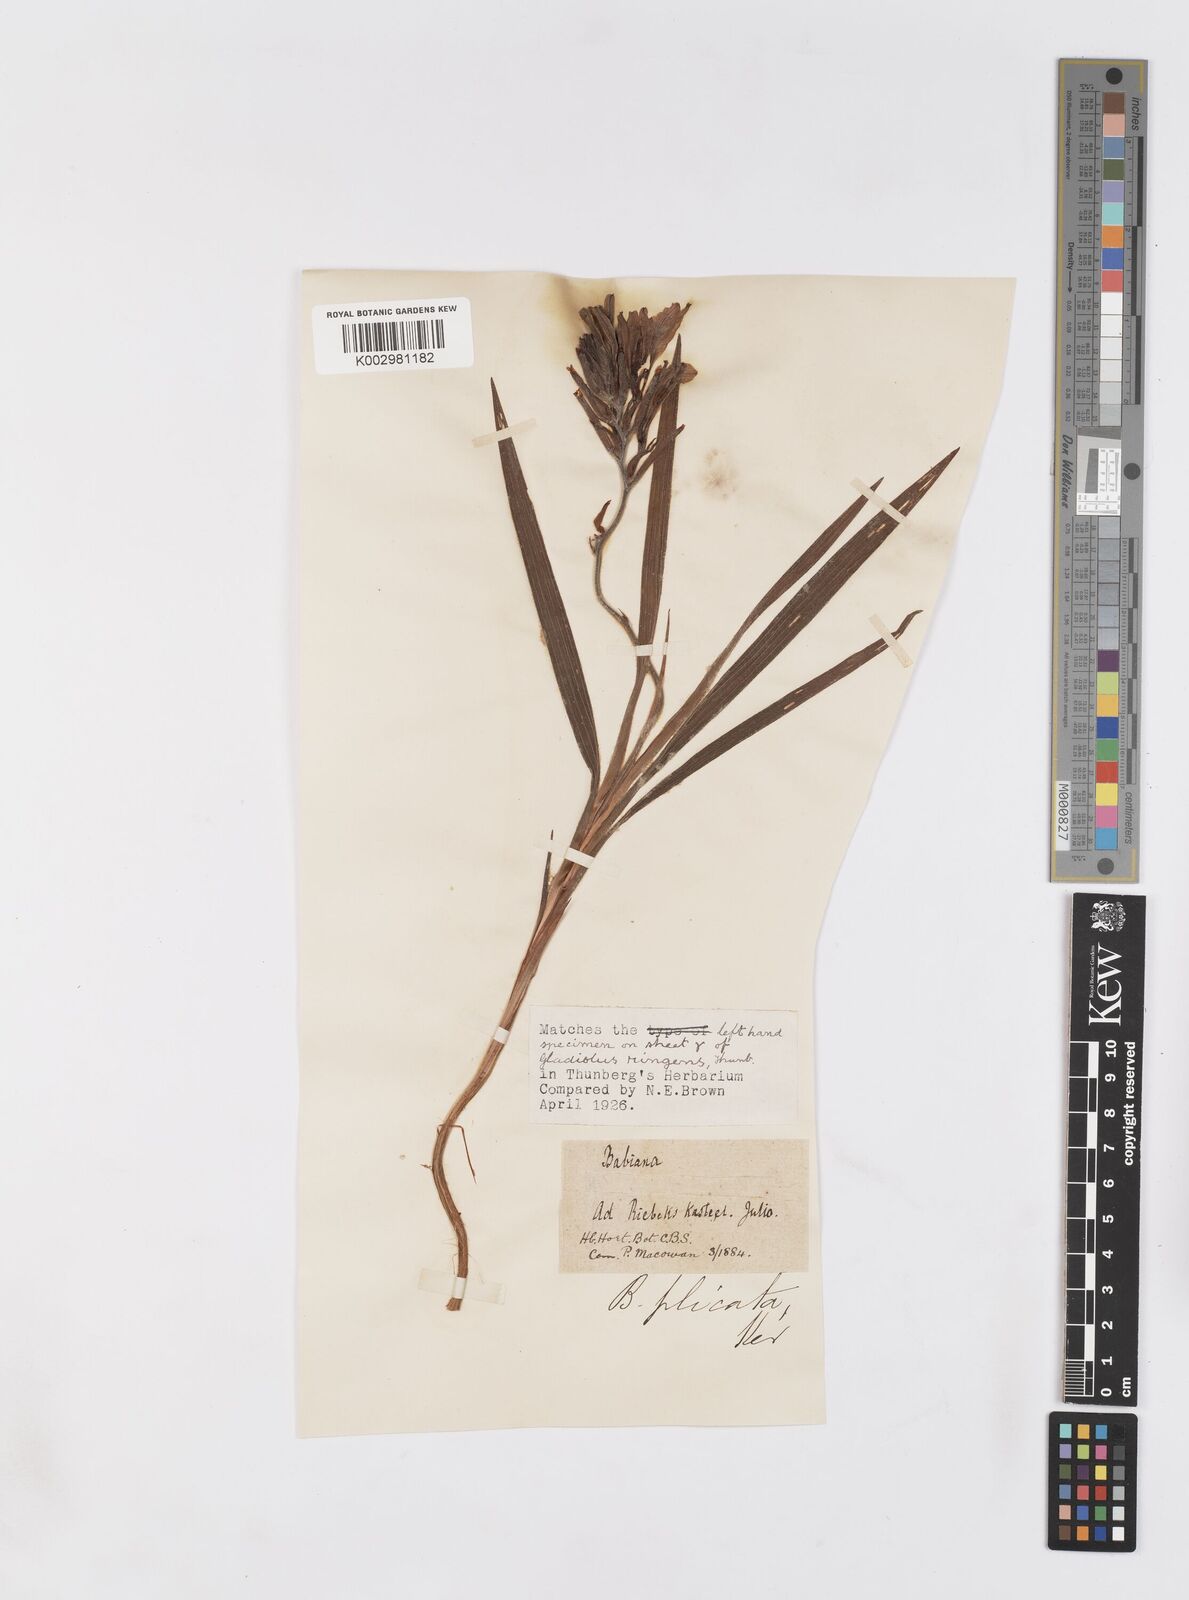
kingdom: Plantae
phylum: Tracheophyta
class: Liliopsida
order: Asparagales
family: Iridaceae
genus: Babiana
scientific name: Babiana fragrans
